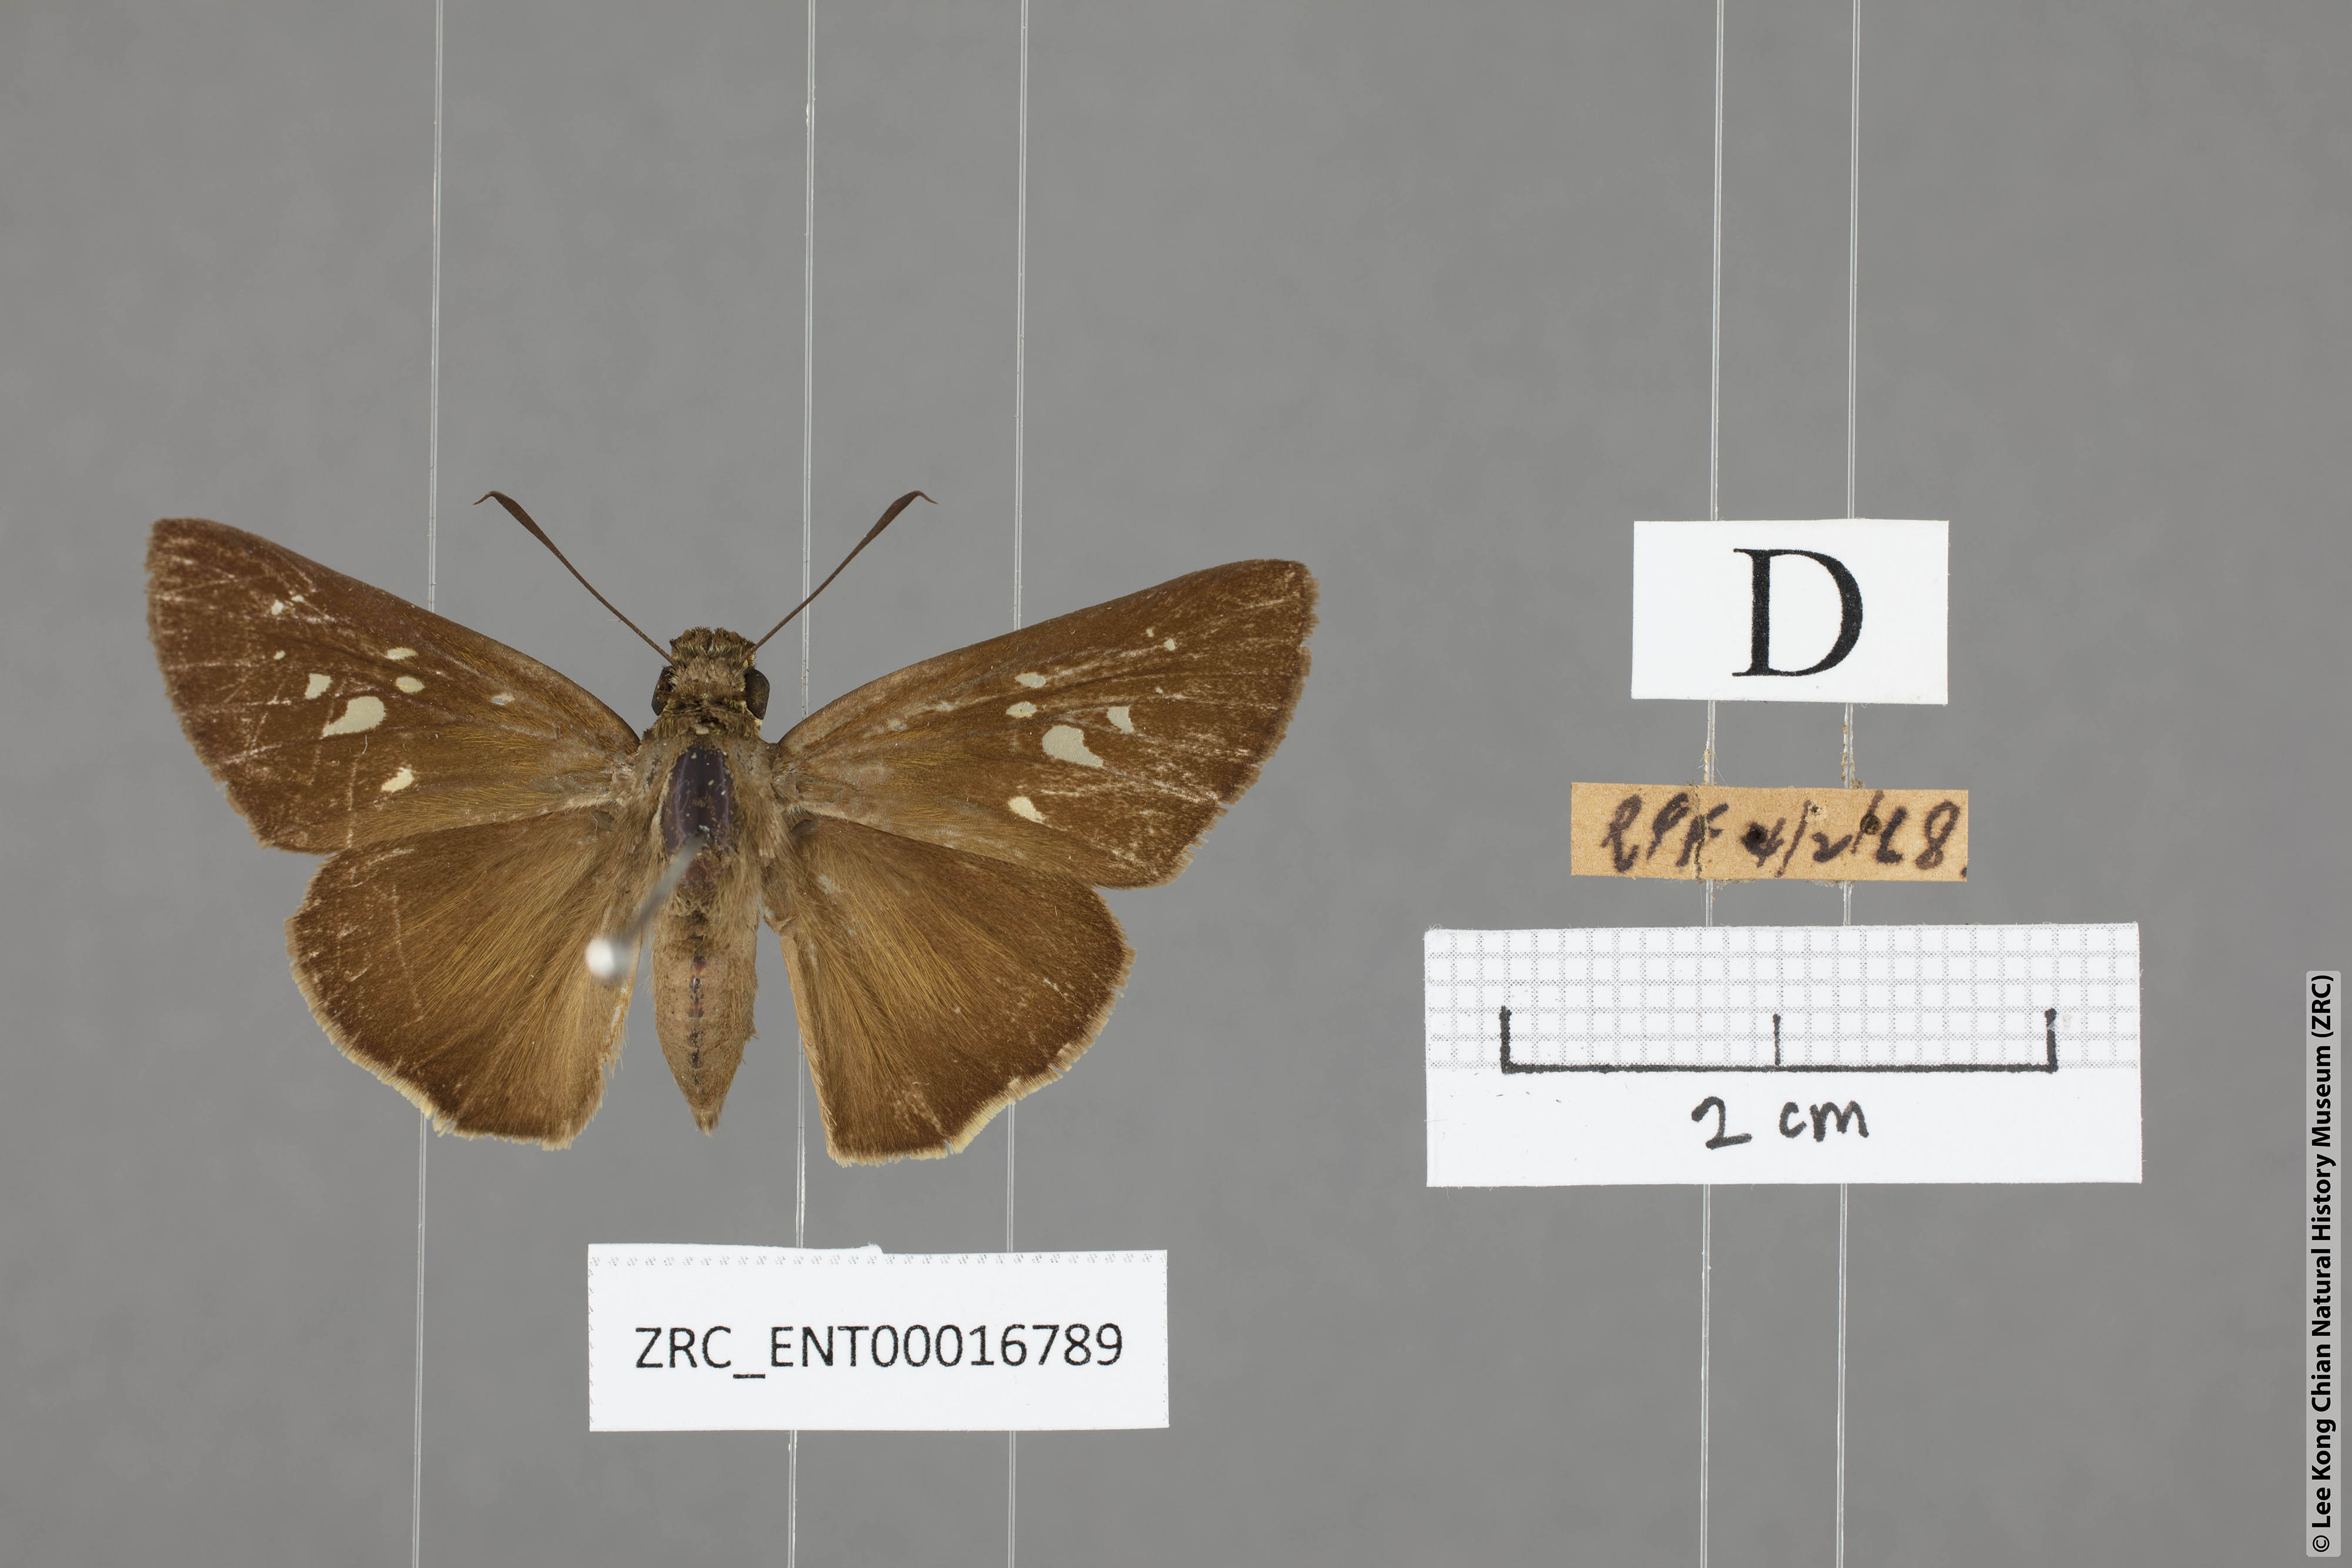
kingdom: Animalia
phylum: Arthropoda
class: Insecta
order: Lepidoptera
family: Hesperiidae
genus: Baoris
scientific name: Baoris penicillata
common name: Paintbrush swift
